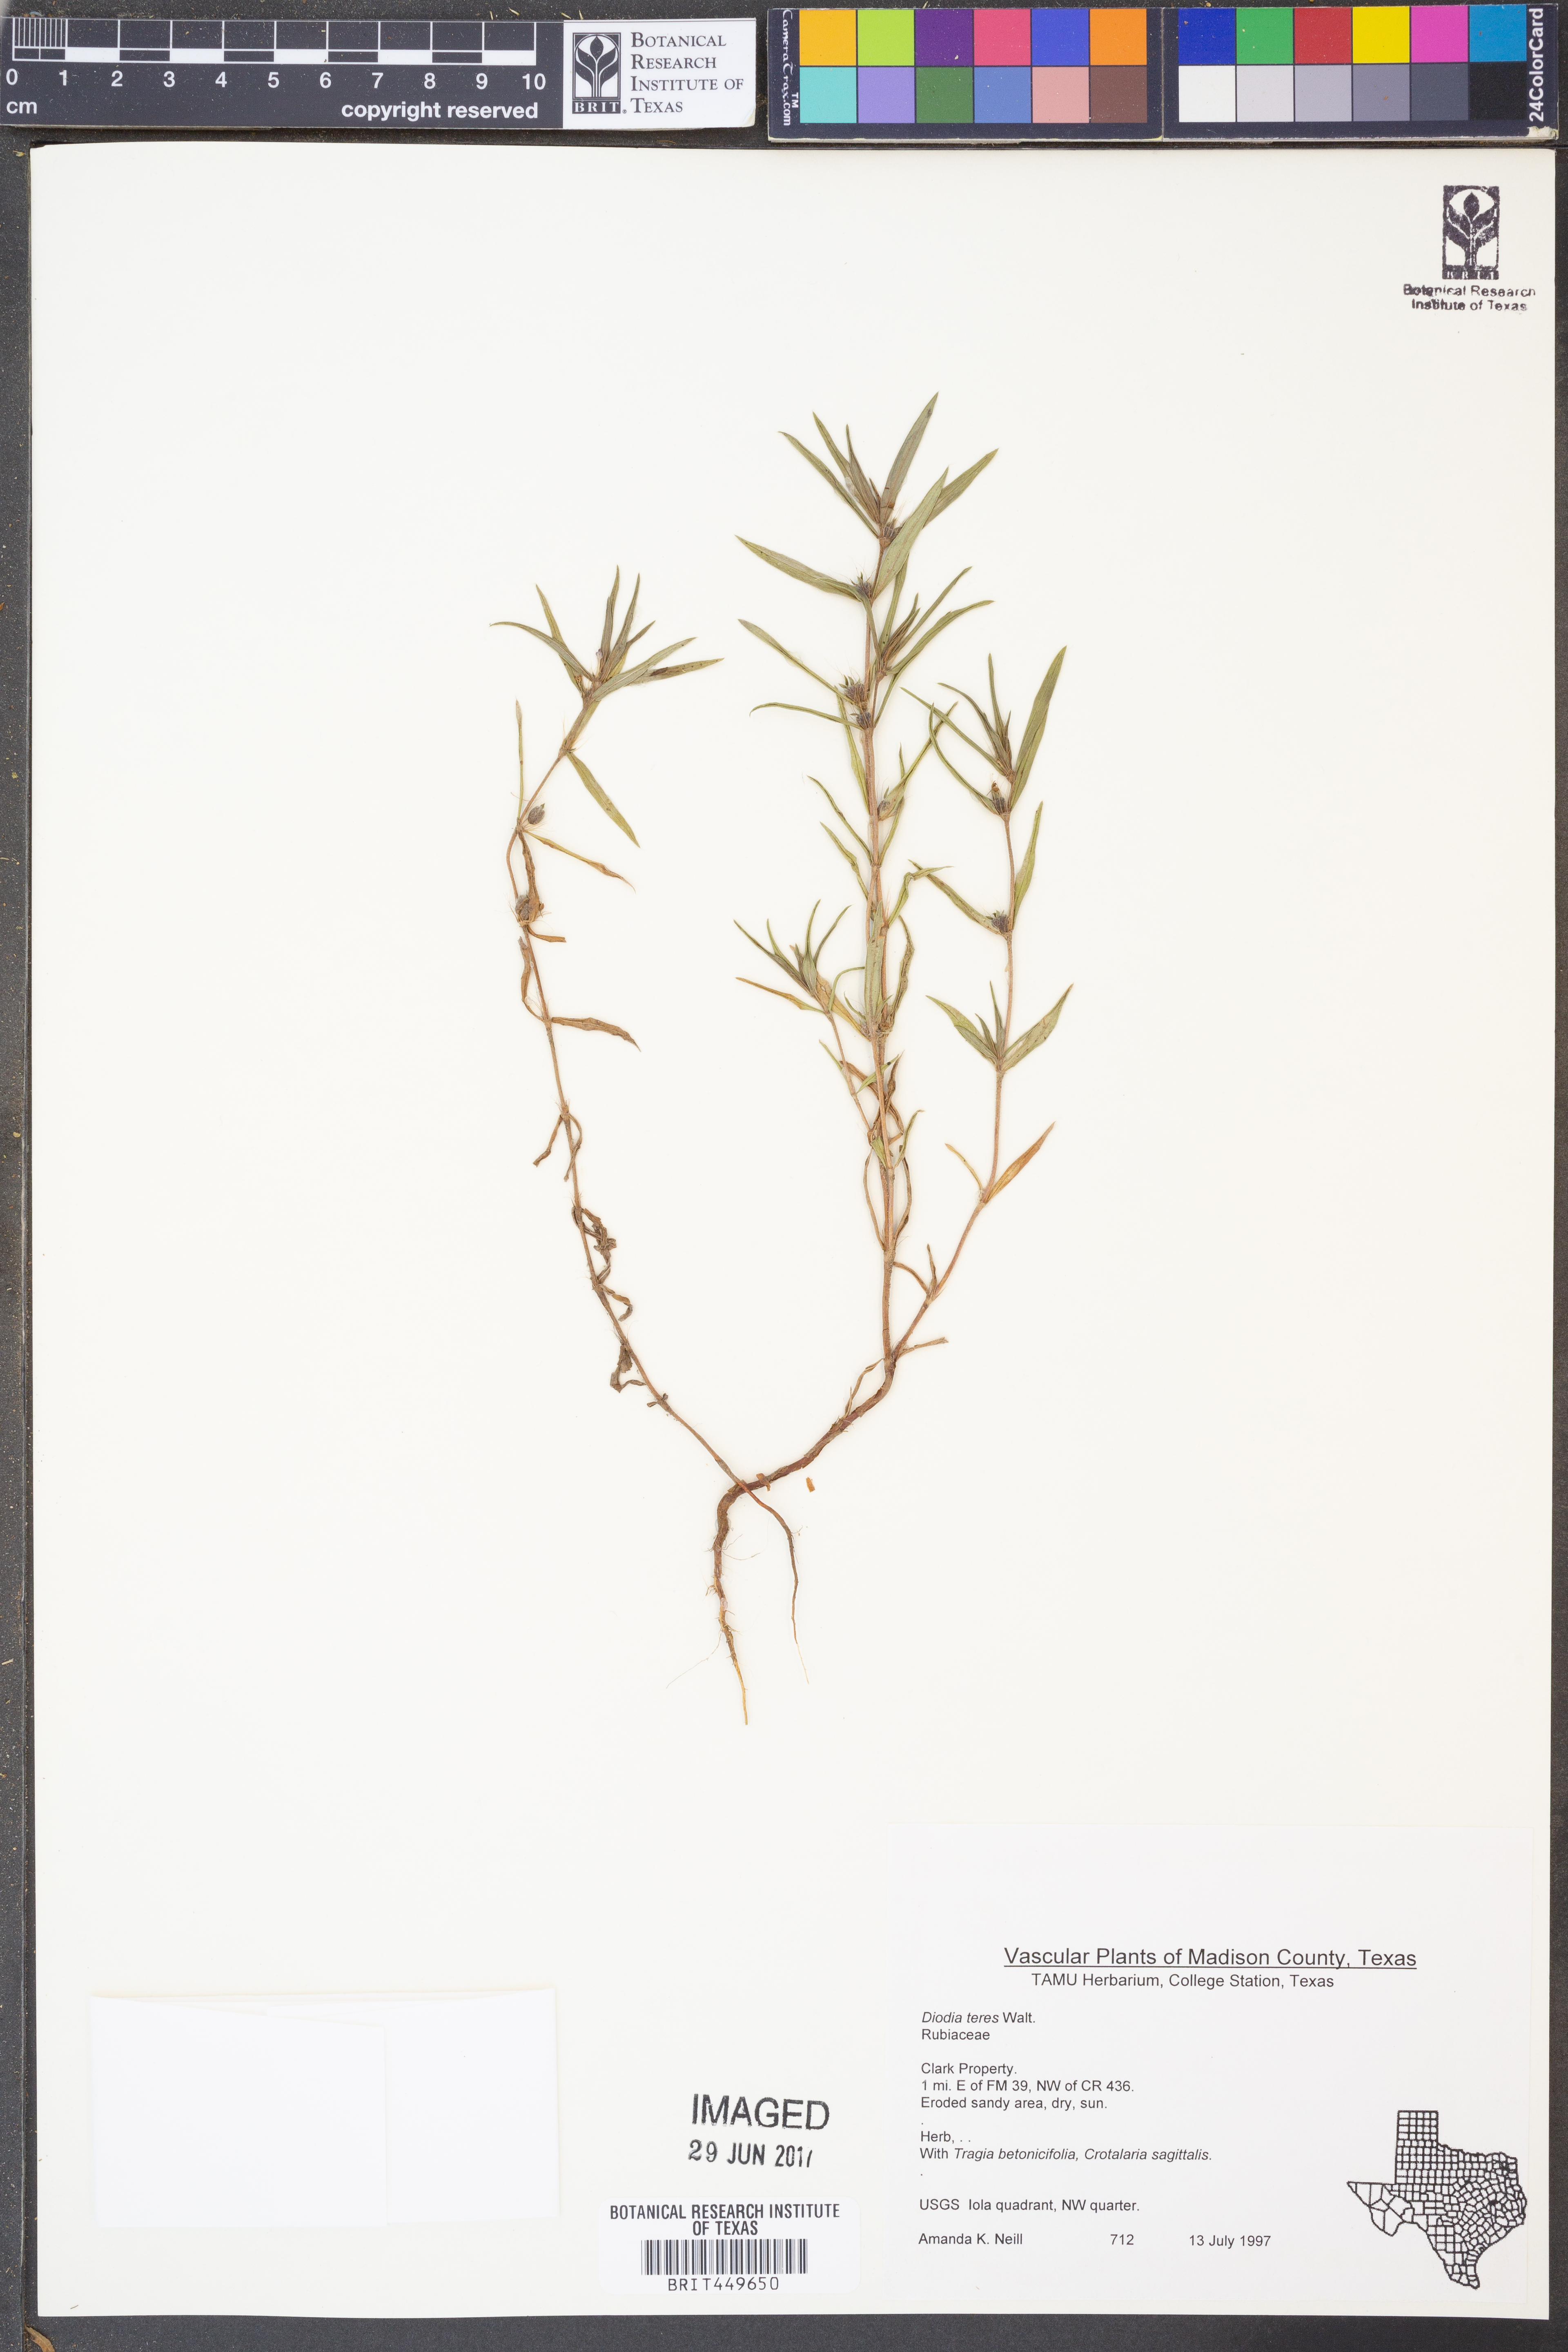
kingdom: Plantae
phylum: Tracheophyta
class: Magnoliopsida
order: Gentianales
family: Rubiaceae
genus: Hexasepalum
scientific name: Hexasepalum teres
